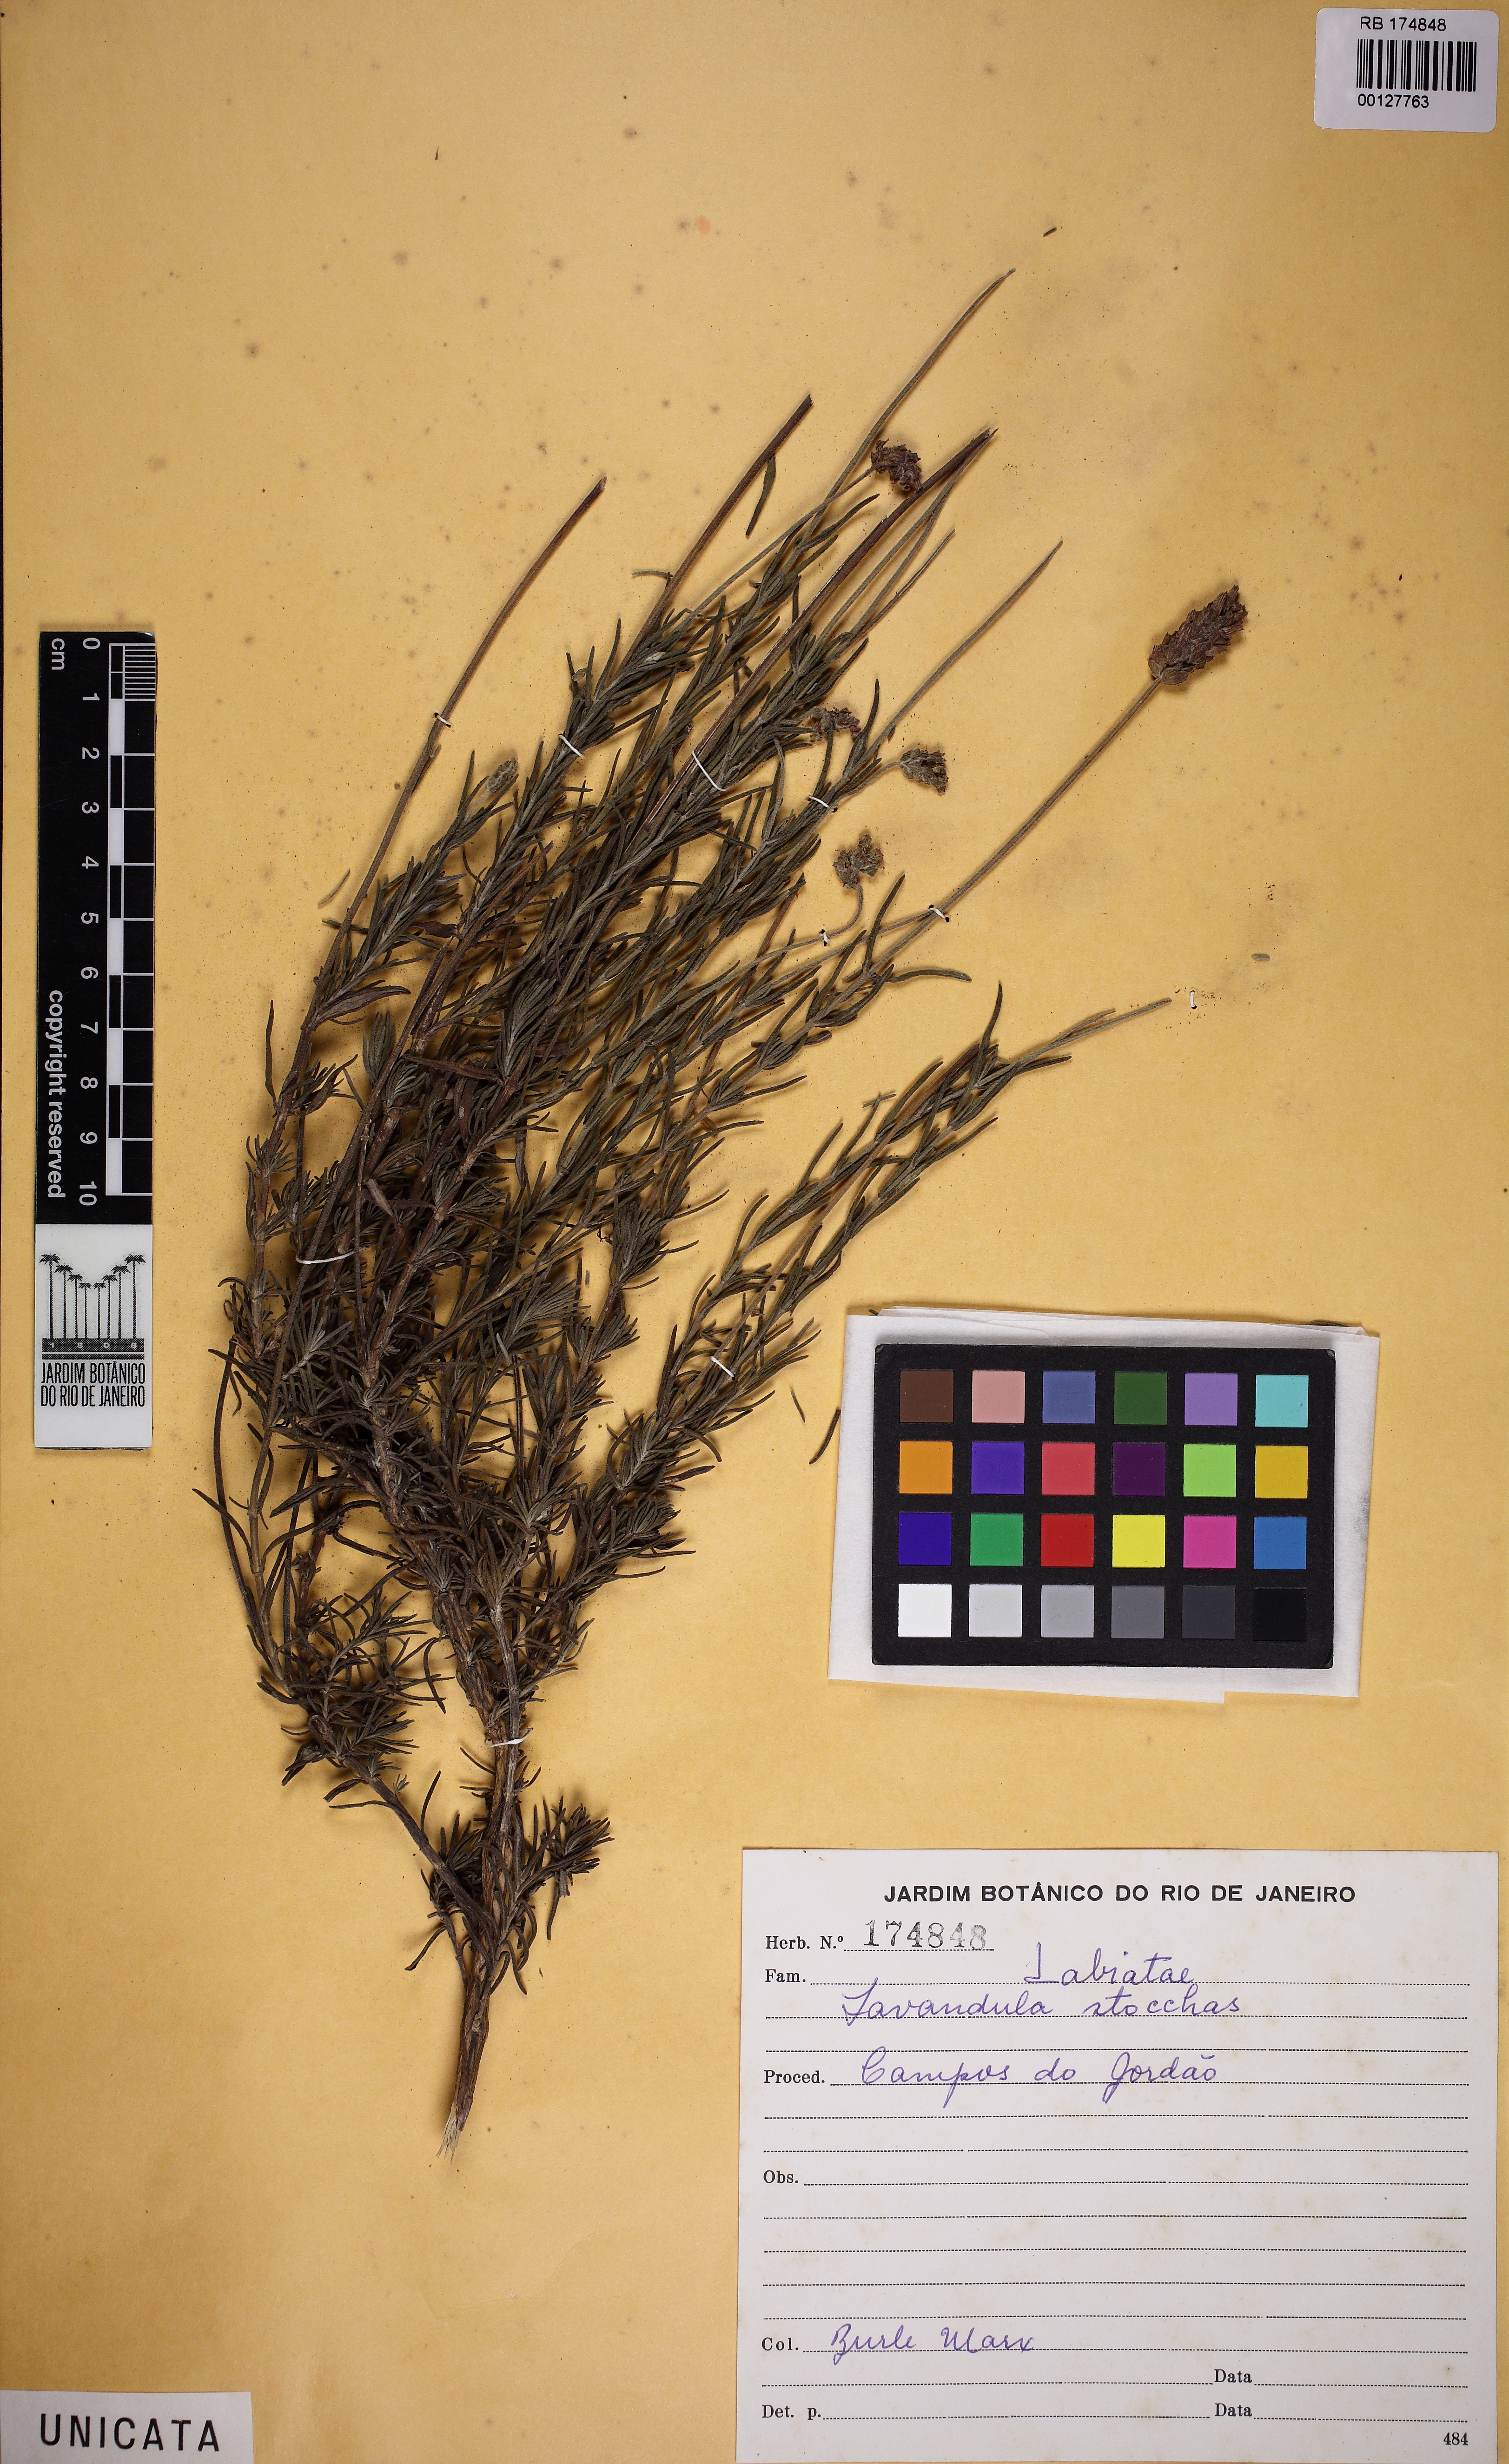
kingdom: Plantae
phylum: Tracheophyta
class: Magnoliopsida
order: Lamiales
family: Lamiaceae
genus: Lavandula
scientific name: Lavandula stoechas
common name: French lavender
